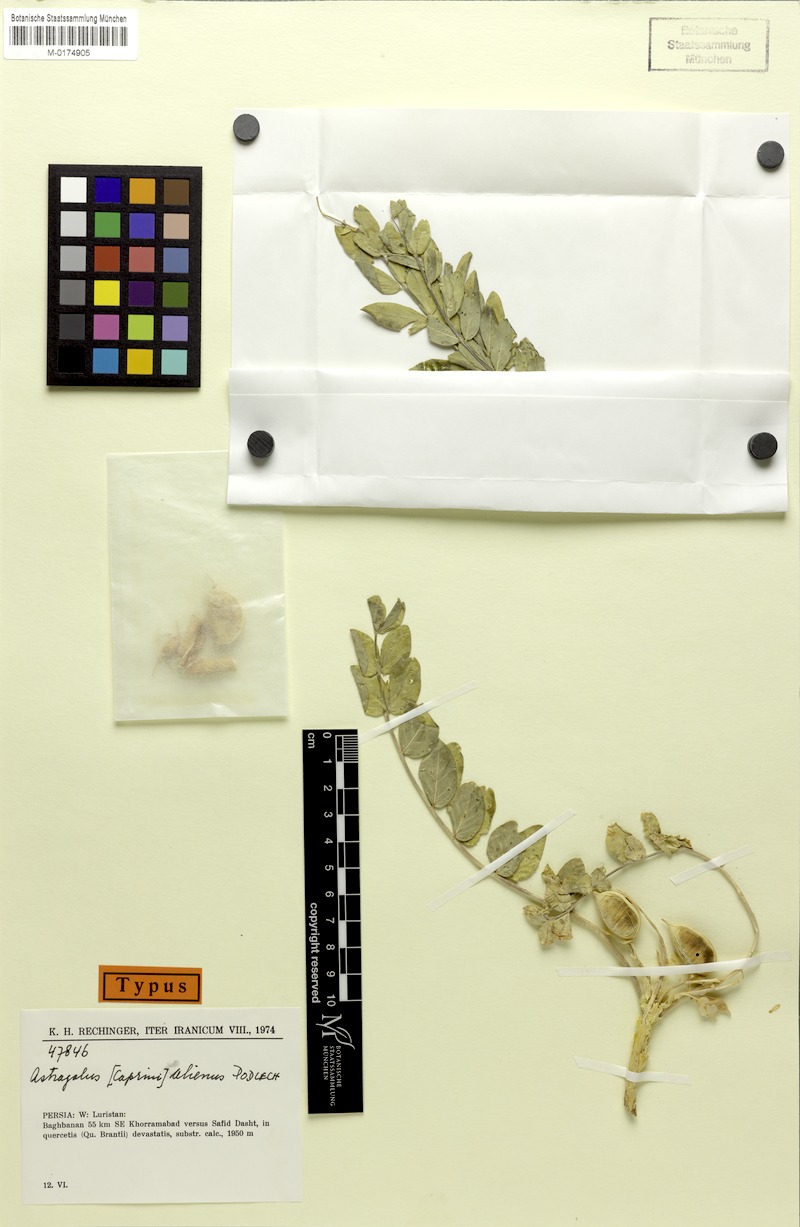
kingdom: Plantae
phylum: Tracheophyta
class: Magnoliopsida
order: Fabales
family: Fabaceae
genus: Astragalus
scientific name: Astragalus allectus
